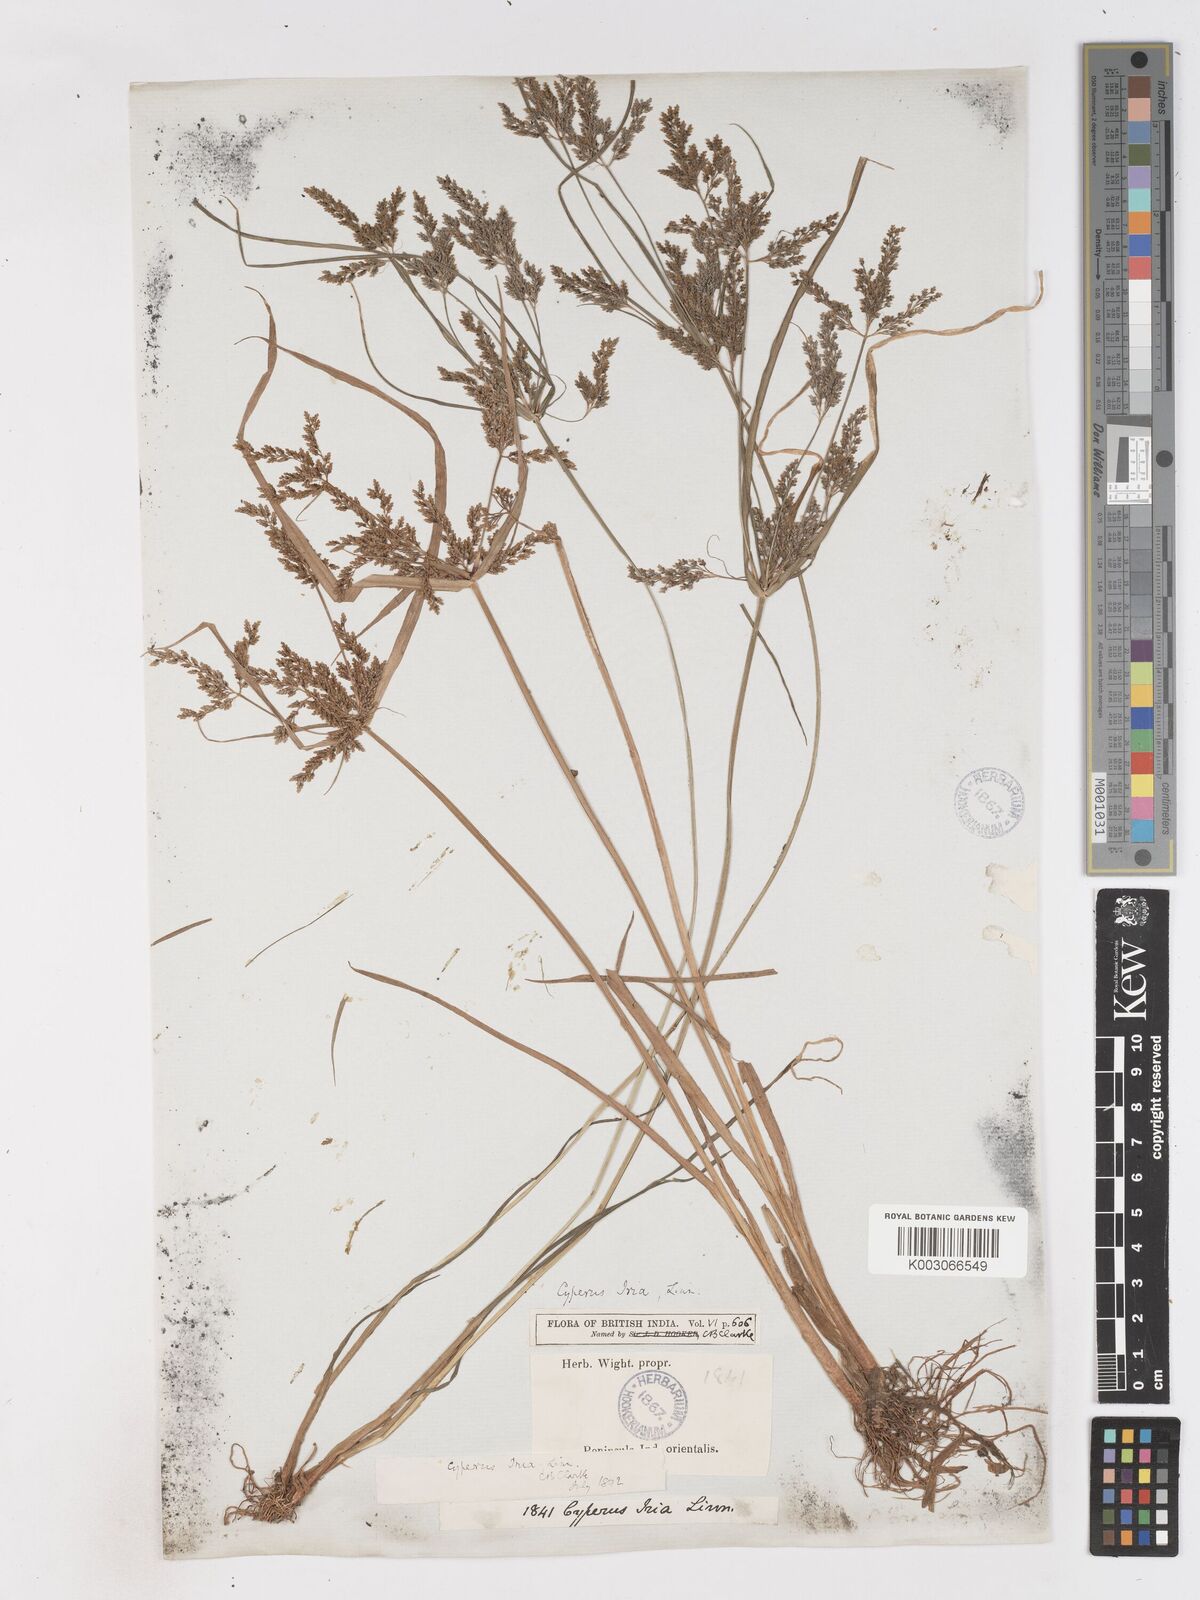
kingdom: Plantae
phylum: Tracheophyta
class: Liliopsida
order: Poales
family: Cyperaceae
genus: Cyperus
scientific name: Cyperus iria
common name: Ricefield flatsedge
